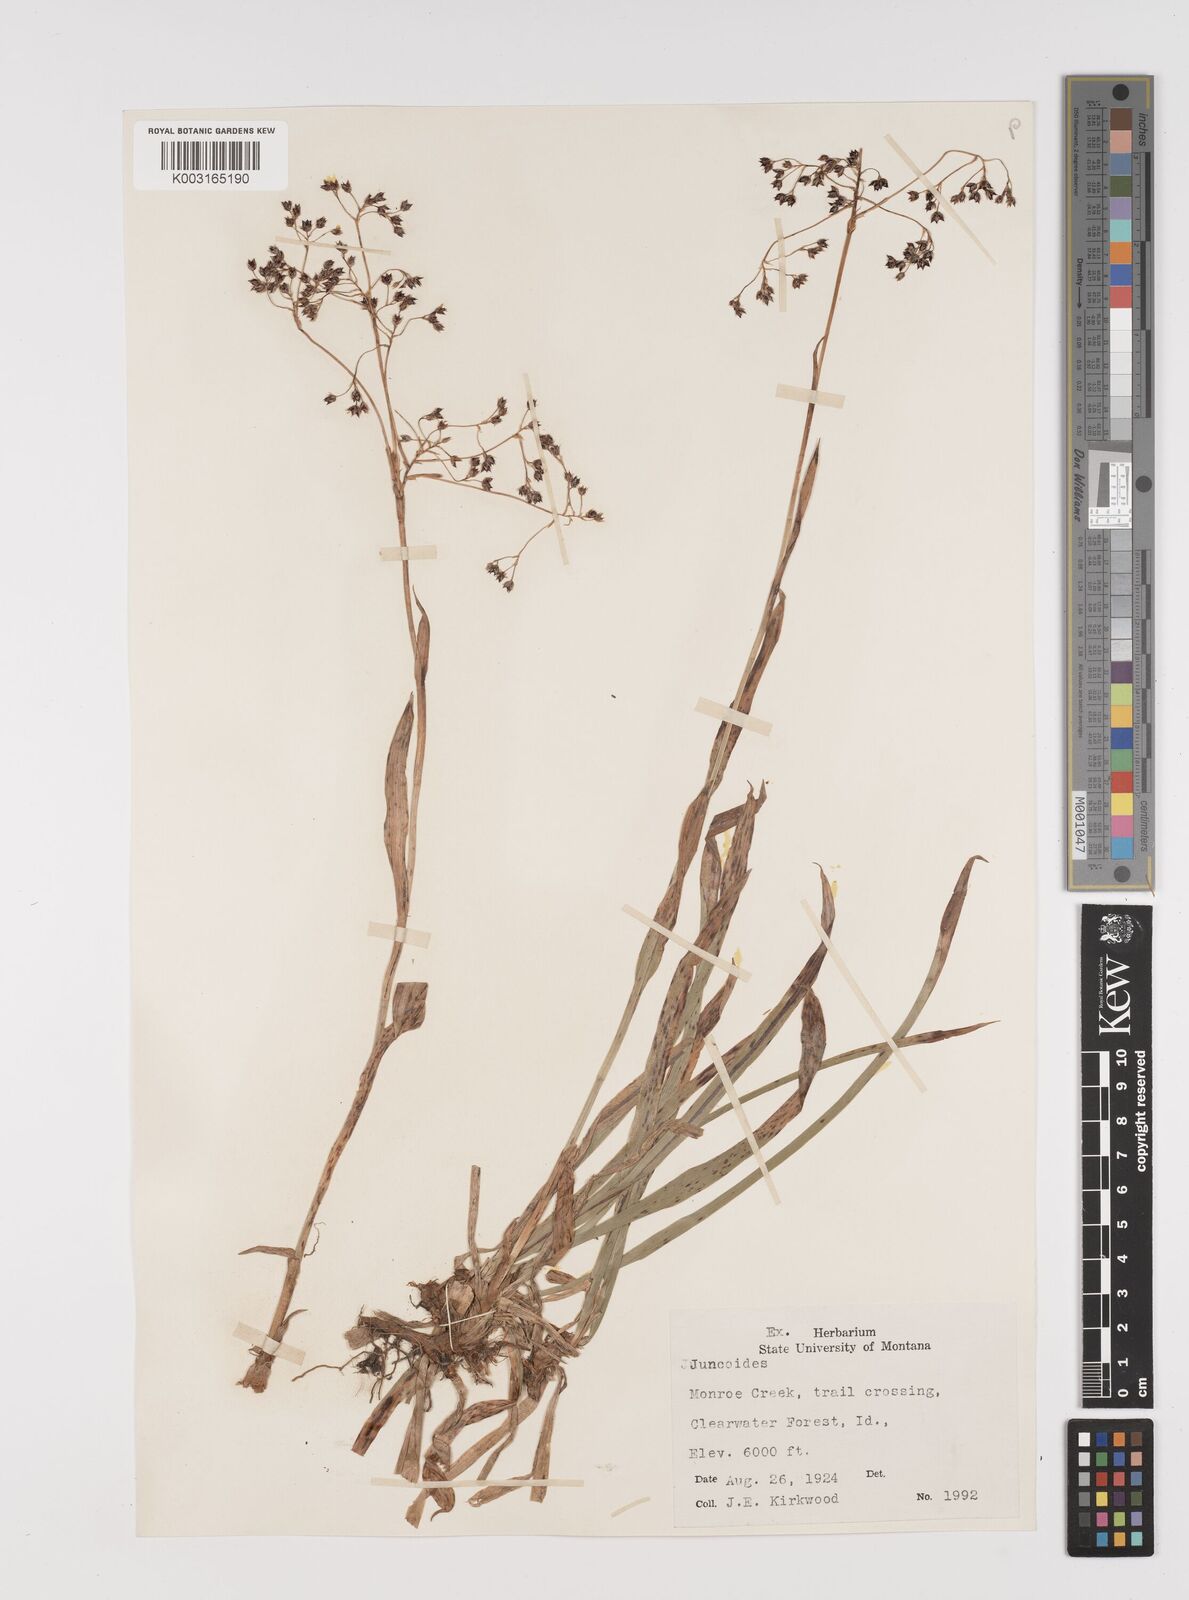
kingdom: Plantae
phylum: Tracheophyta
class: Liliopsida
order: Poales
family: Juncaceae
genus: Luzula
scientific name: Luzula
